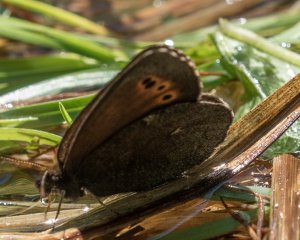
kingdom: Animalia
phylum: Arthropoda
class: Insecta
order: Lepidoptera
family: Nymphalidae
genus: Erebia
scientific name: Erebia disa
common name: Taiga Alpine
